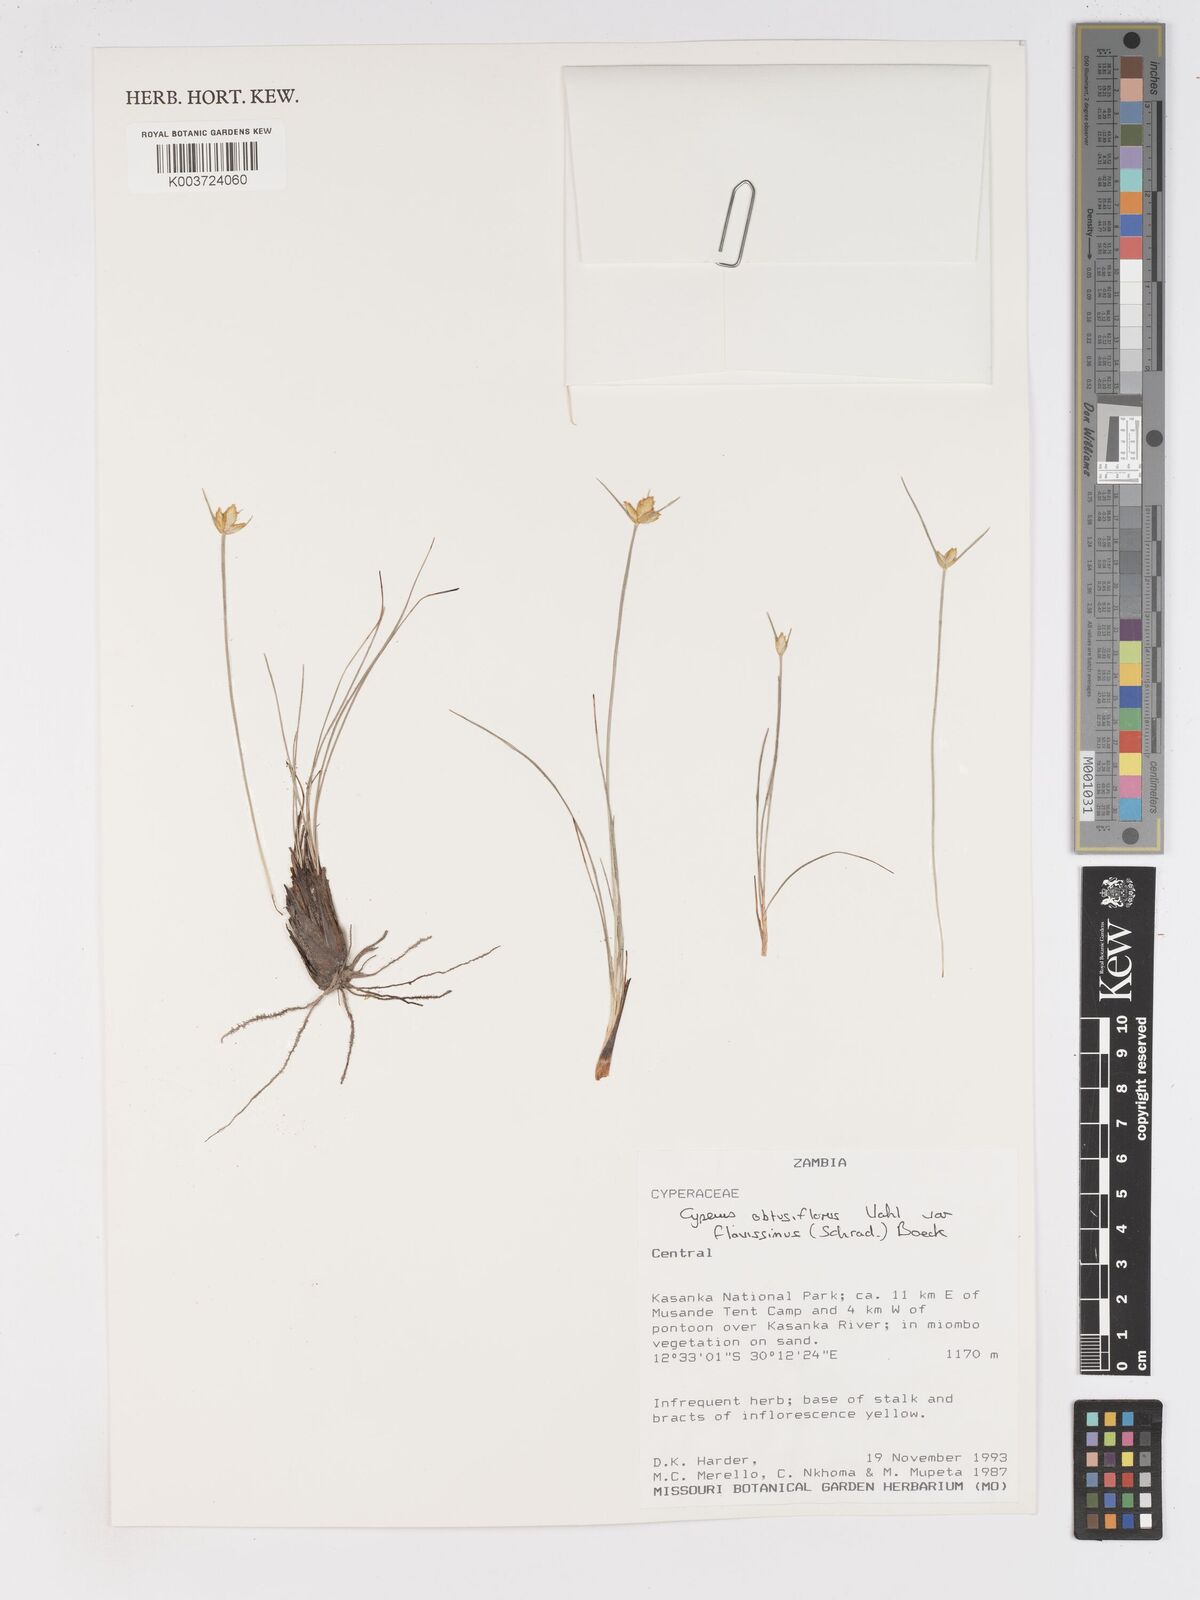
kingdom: Plantae
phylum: Tracheophyta
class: Liliopsida
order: Poales
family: Cyperaceae
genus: Cyperus
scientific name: Cyperus niveus
